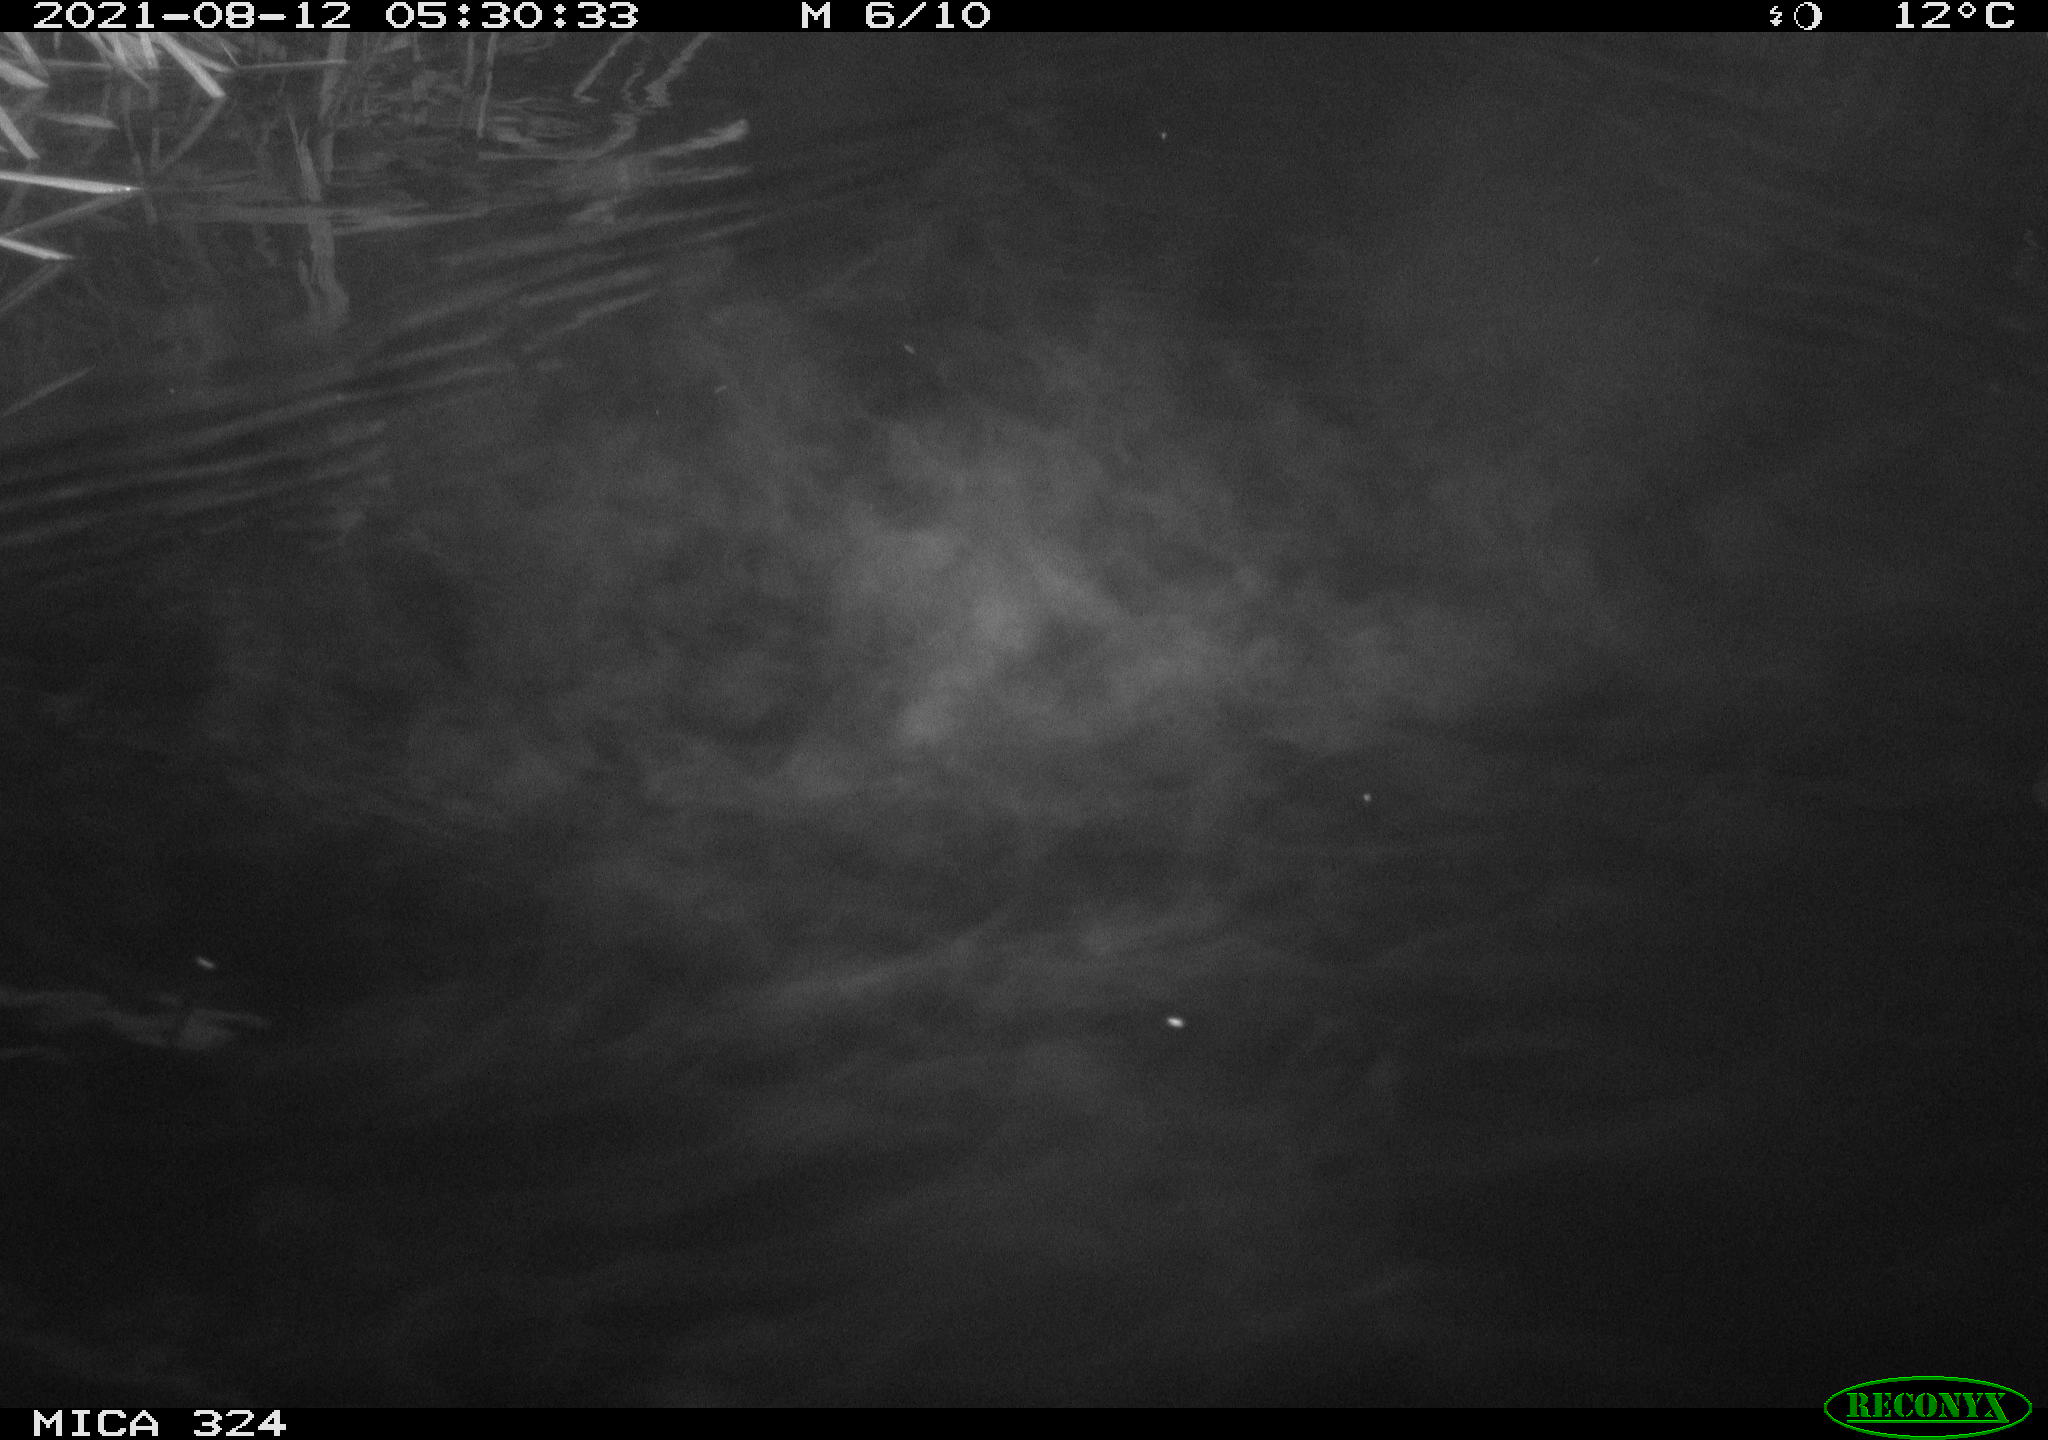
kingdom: Animalia
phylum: Chordata
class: Mammalia
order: Rodentia
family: Cricetidae
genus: Ondatra
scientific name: Ondatra zibethicus
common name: Muskrat
